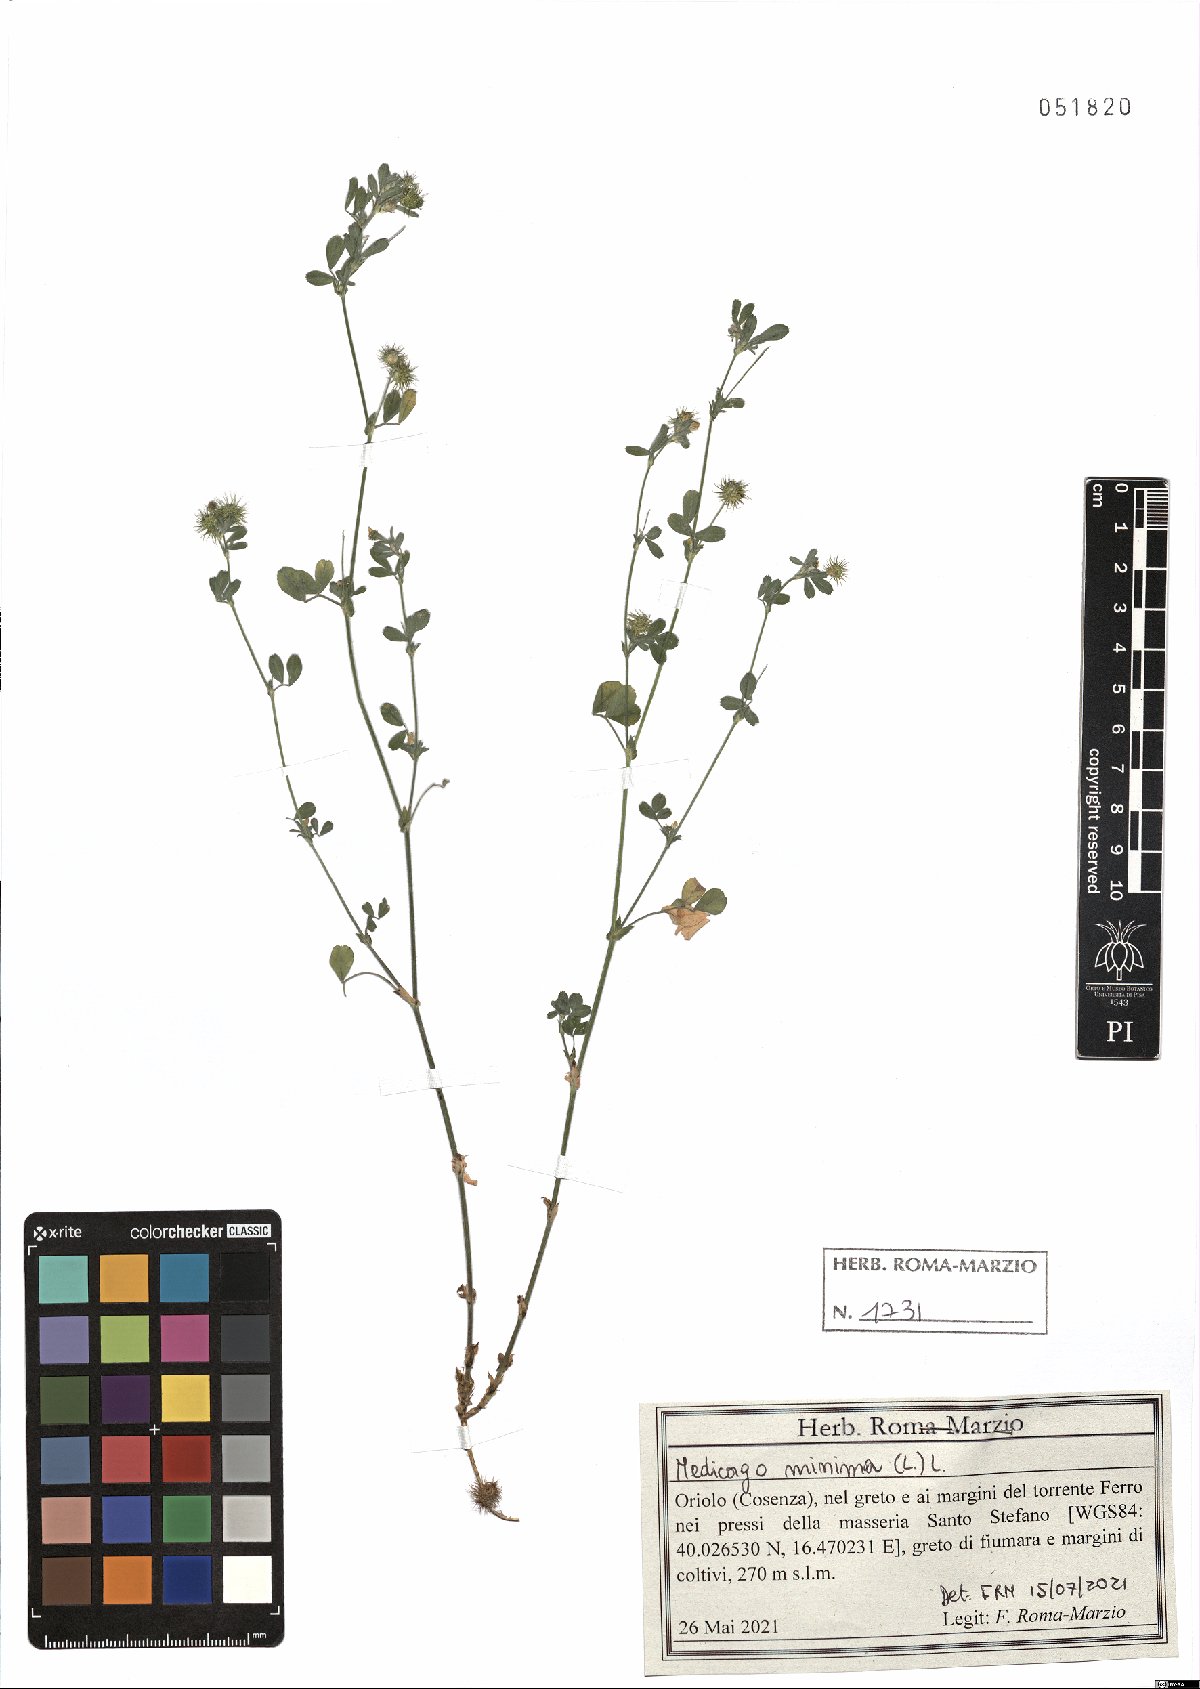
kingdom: Plantae
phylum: Tracheophyta
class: Magnoliopsida
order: Fabales
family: Fabaceae
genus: Medicago
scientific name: Medicago minima
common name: Little bur-clover
